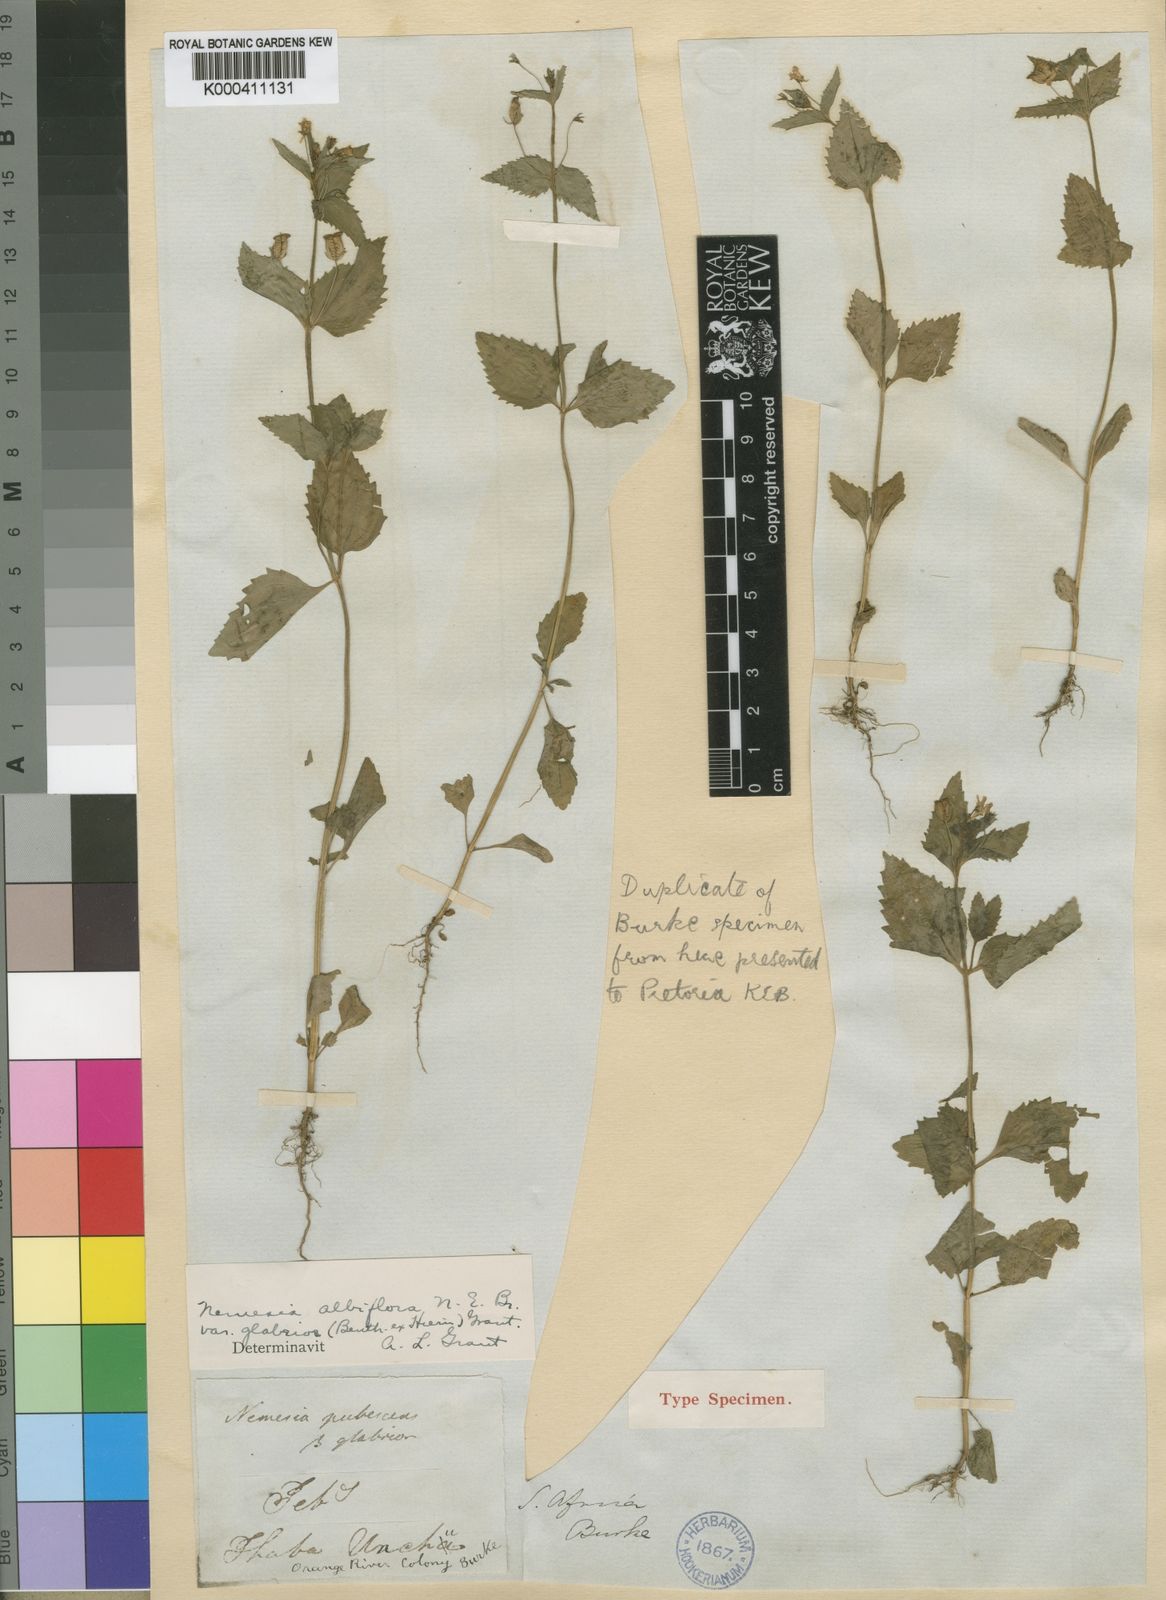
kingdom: Plantae
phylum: Tracheophyta
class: Magnoliopsida
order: Lamiales
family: Scrophulariaceae
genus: Nemesia
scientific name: Nemesia albiflora
